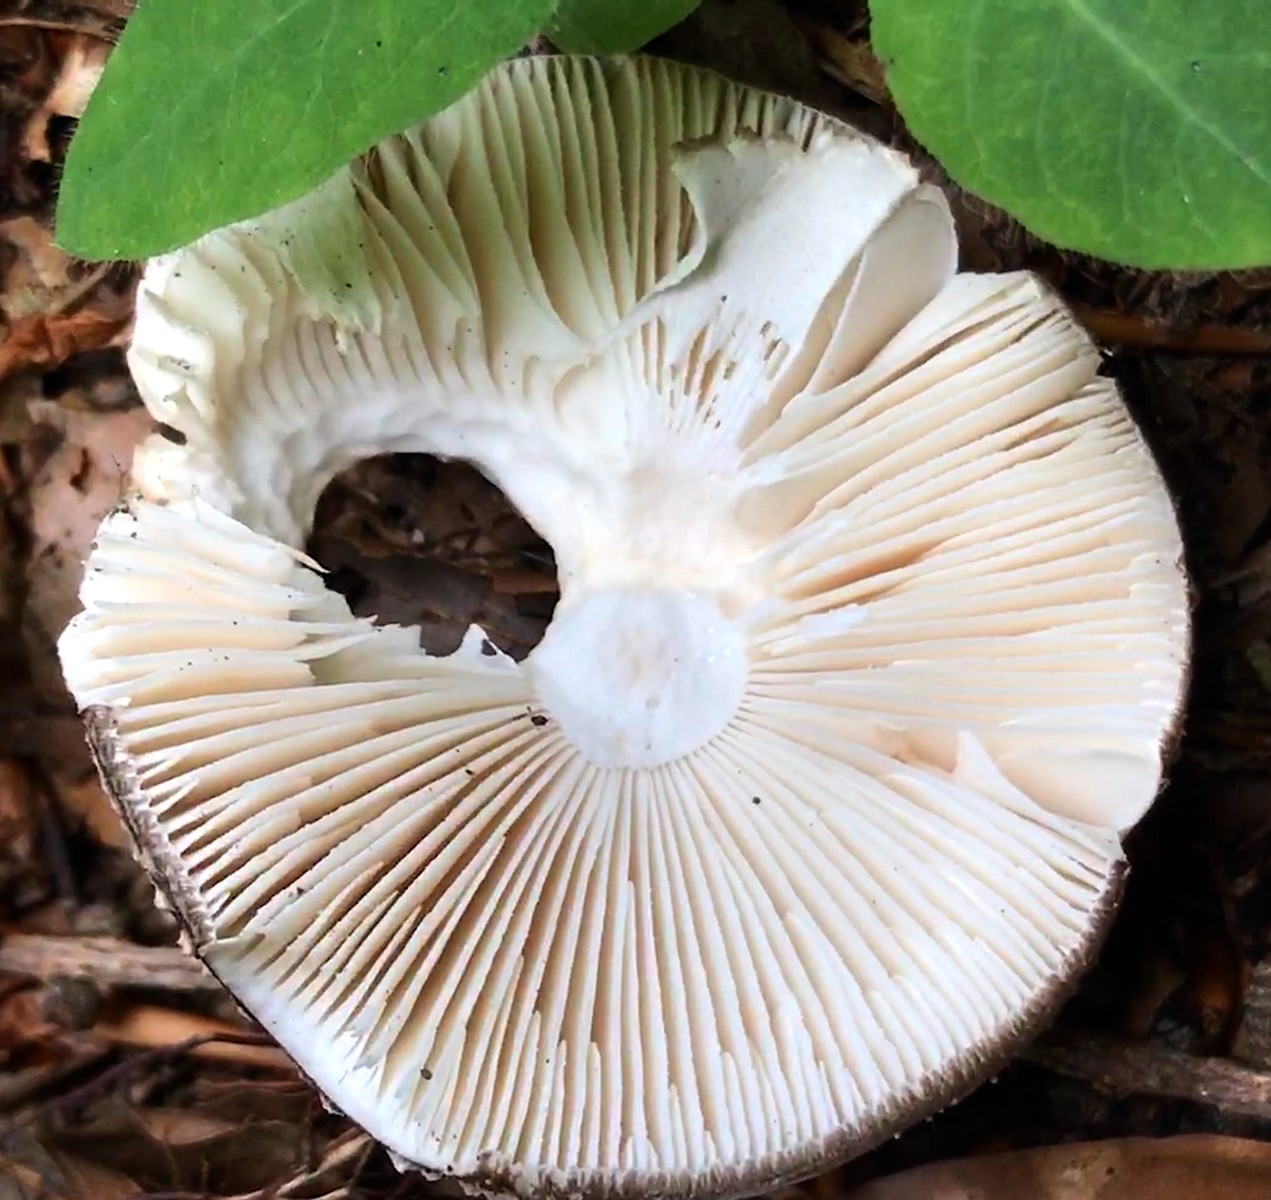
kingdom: Fungi
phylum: Basidiomycota
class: Agaricomycetes
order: Agaricales
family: Amanitaceae
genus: Amanita
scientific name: Amanita
